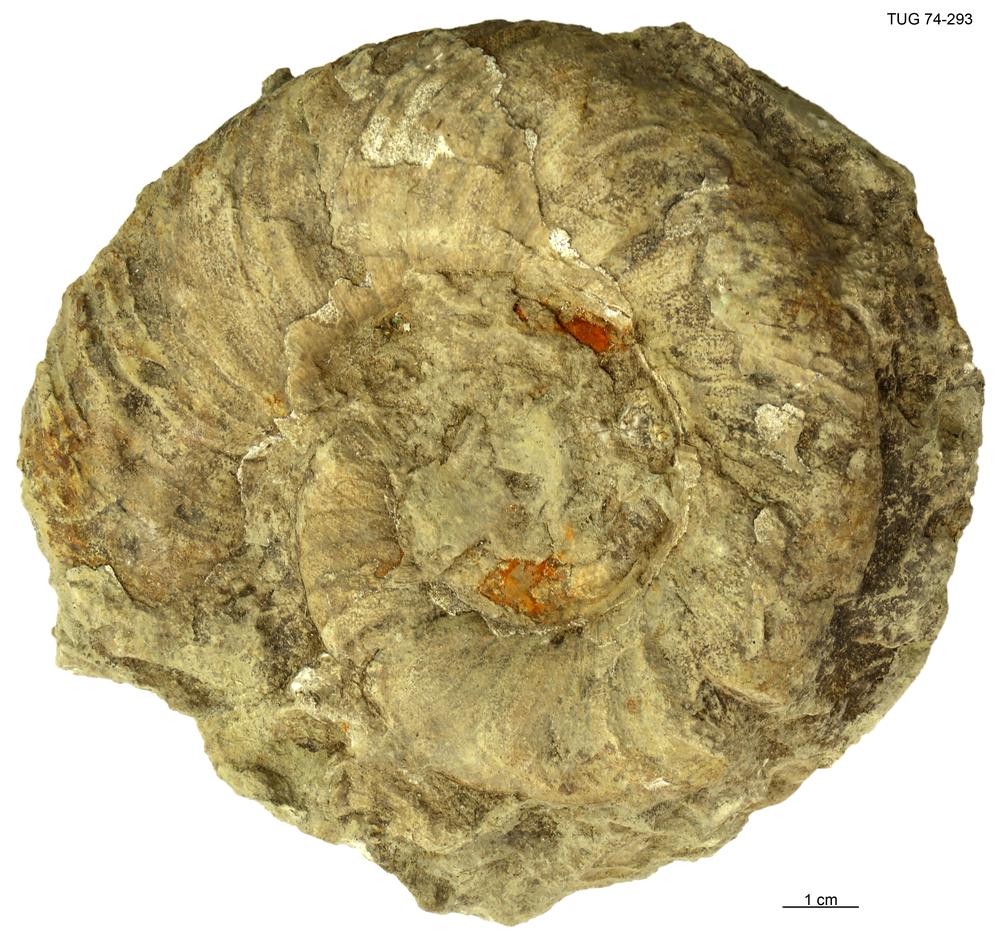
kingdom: Animalia
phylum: Mollusca
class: Cephalopoda
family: Trocholitidae
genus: Discoceras
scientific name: Discoceras
